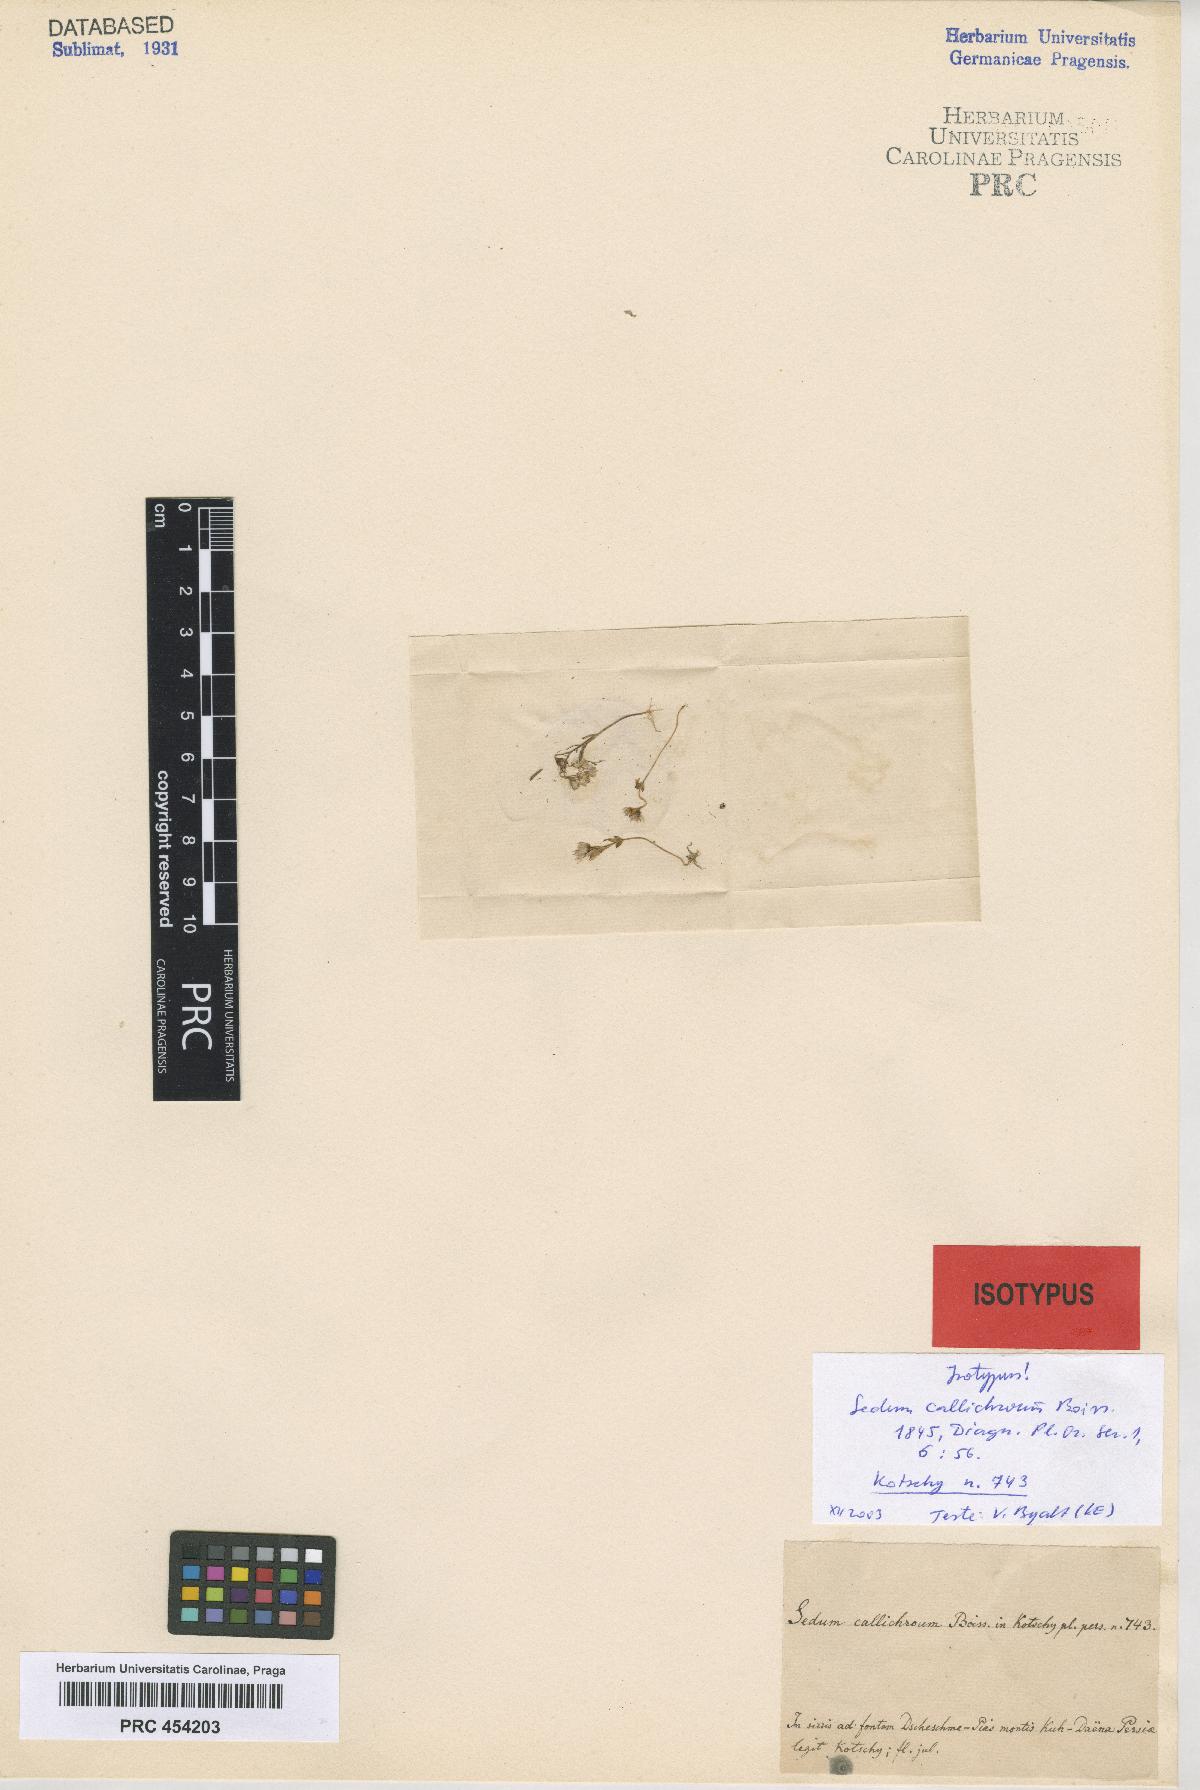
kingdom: Plantae
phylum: Tracheophyta
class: Magnoliopsida
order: Saxifragales
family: Crassulaceae
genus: Sedum
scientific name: Sedum callichroum
